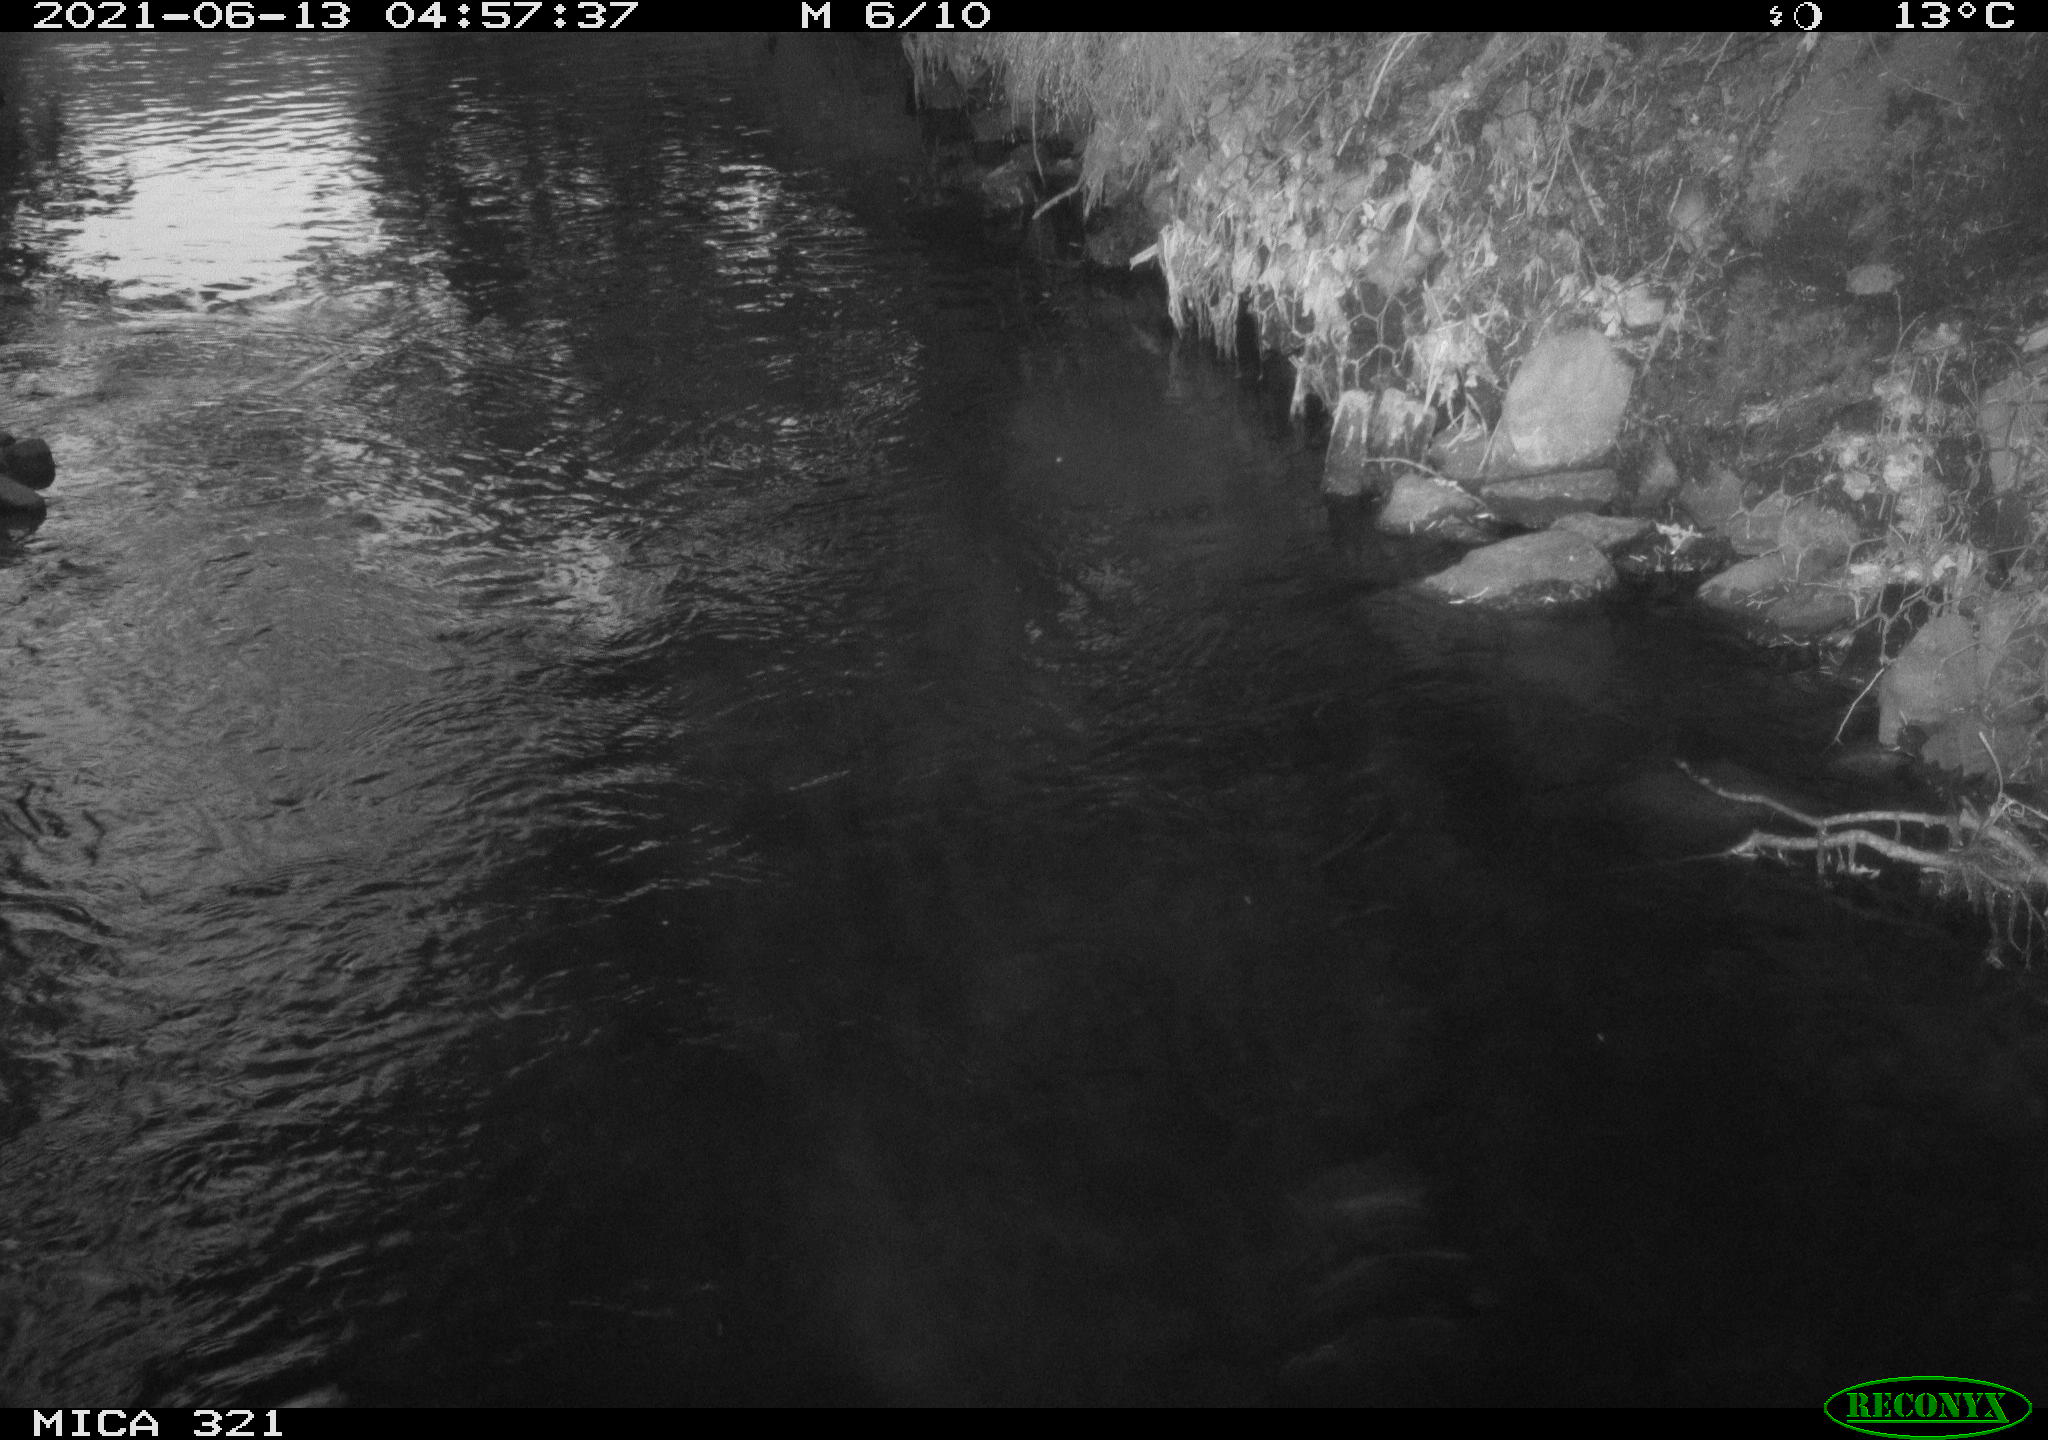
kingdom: Animalia
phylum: Chordata
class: Aves
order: Anseriformes
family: Anatidae
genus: Anas
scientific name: Anas platyrhynchos
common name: Mallard
